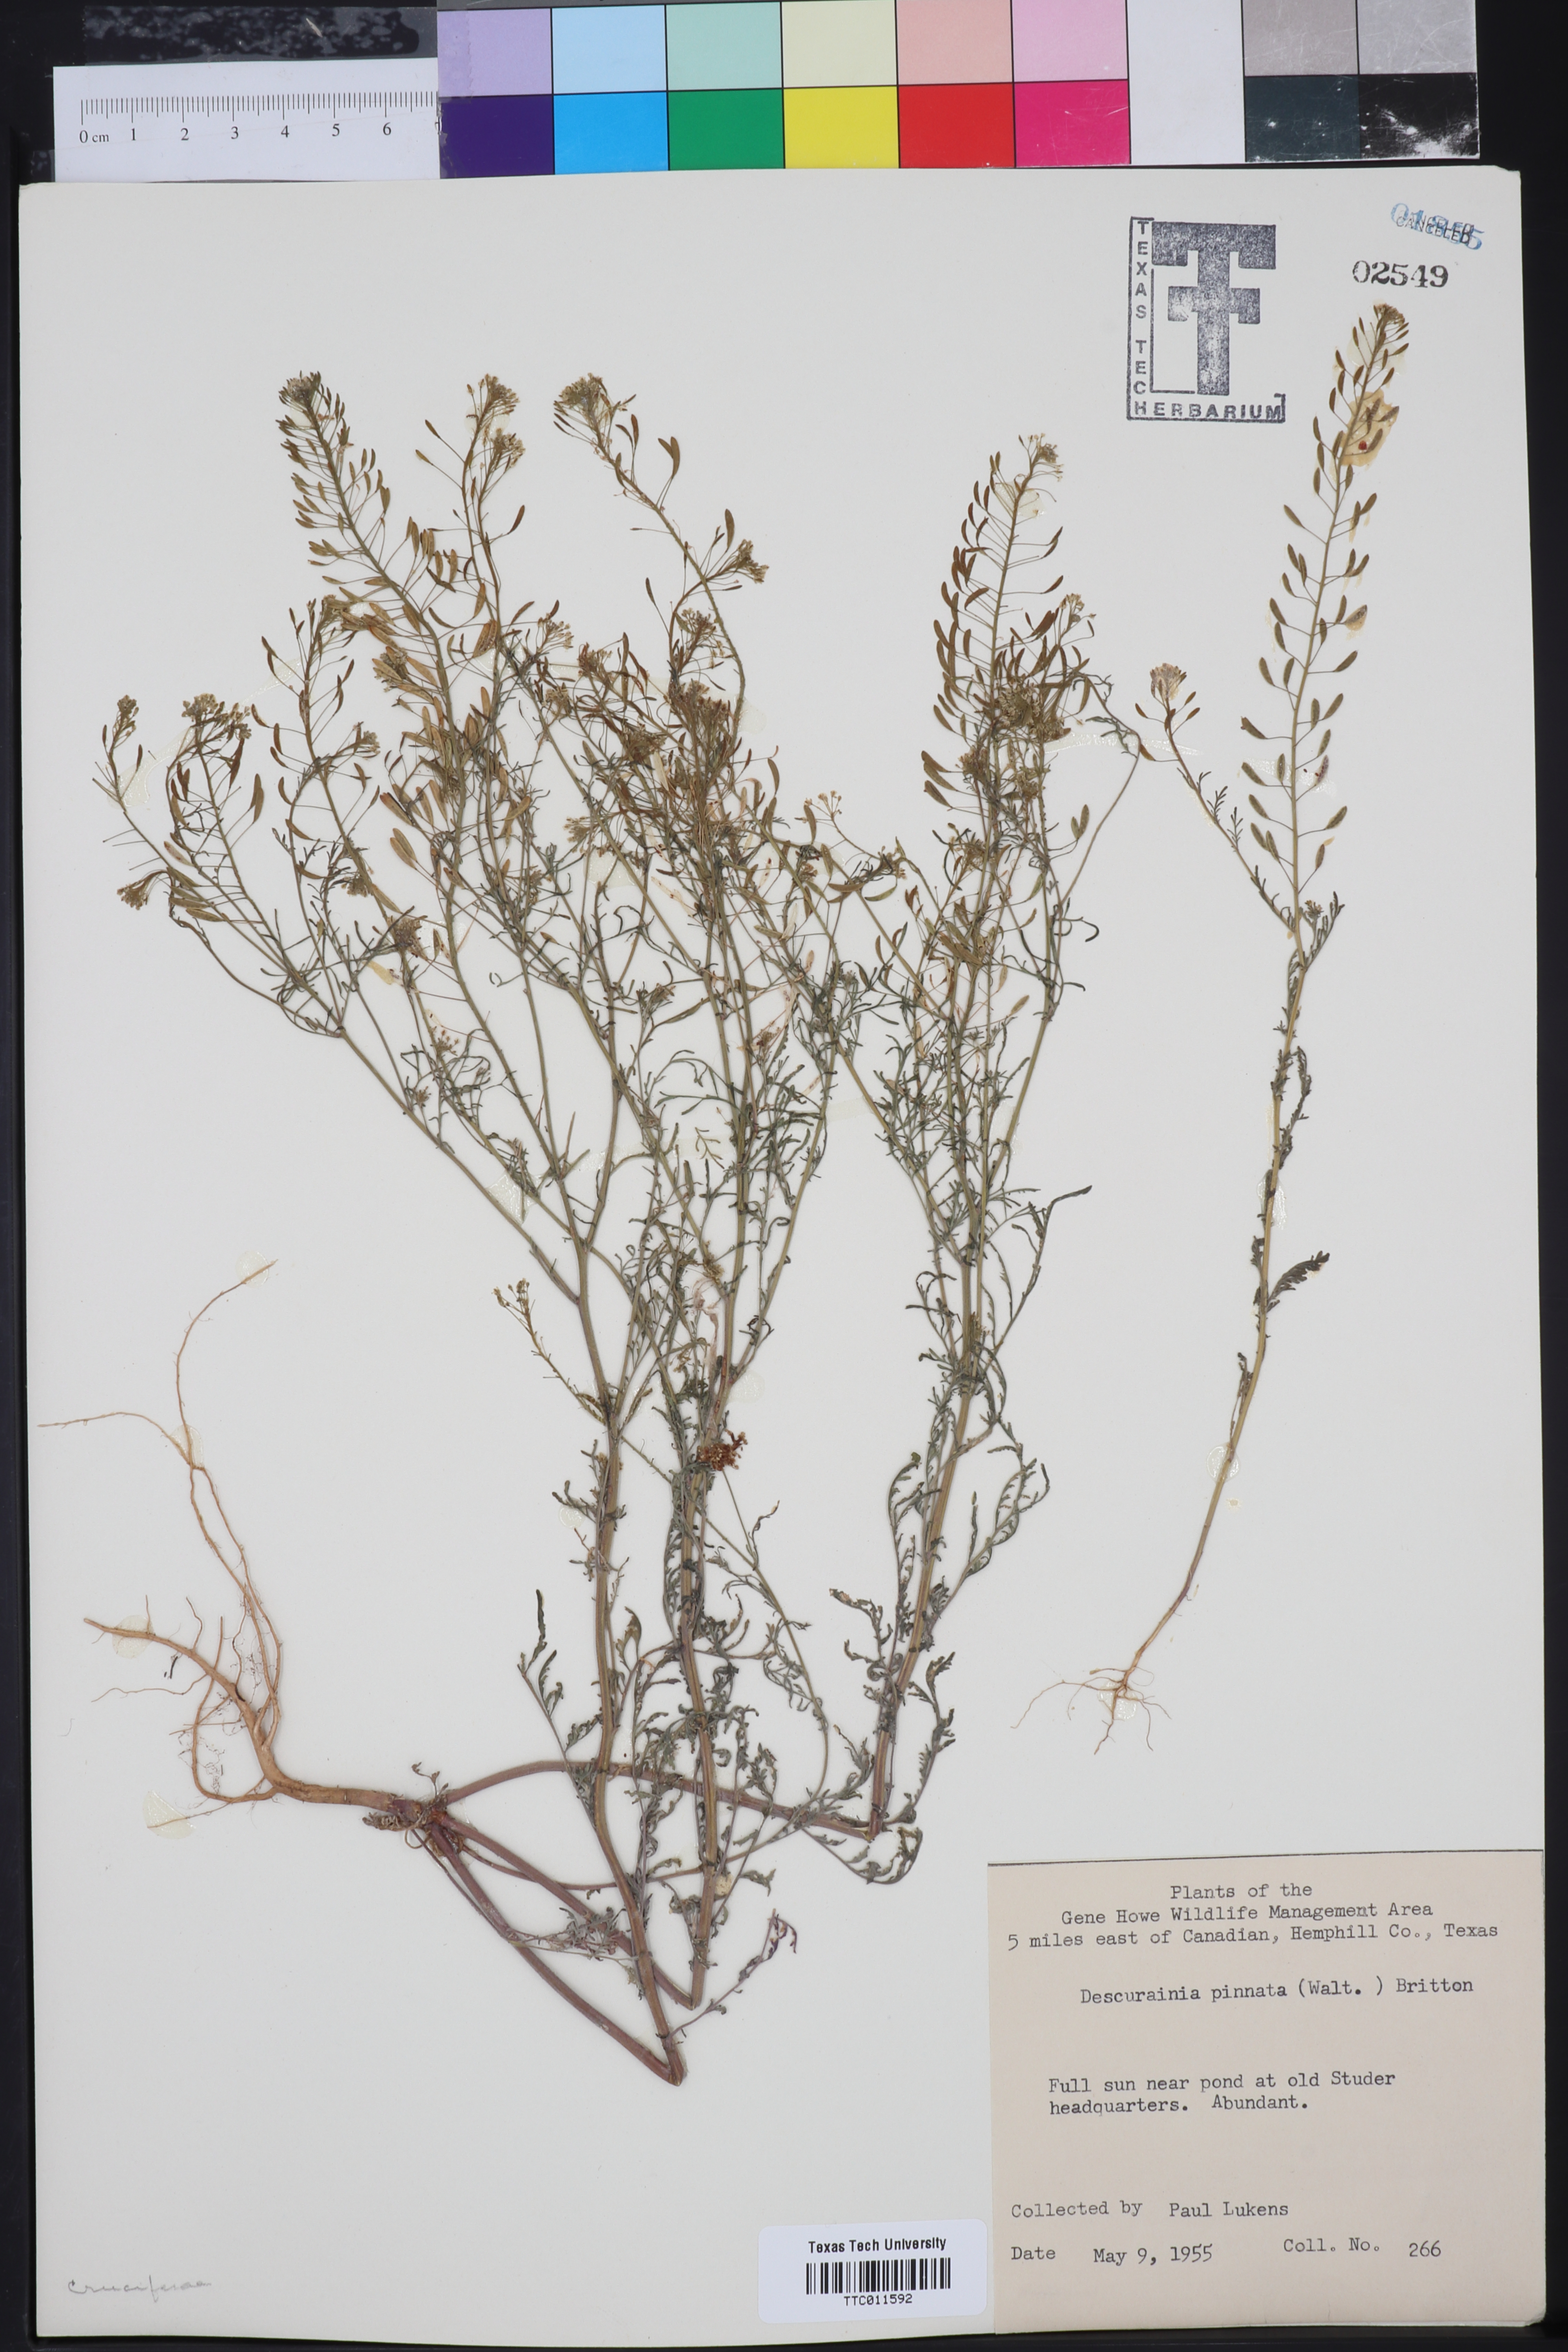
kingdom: Plantae
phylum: Tracheophyta
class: Magnoliopsida
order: Brassicales
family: Brassicaceae
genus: Descurainia
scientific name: Descurainia pinnata
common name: Western tansy mustard
